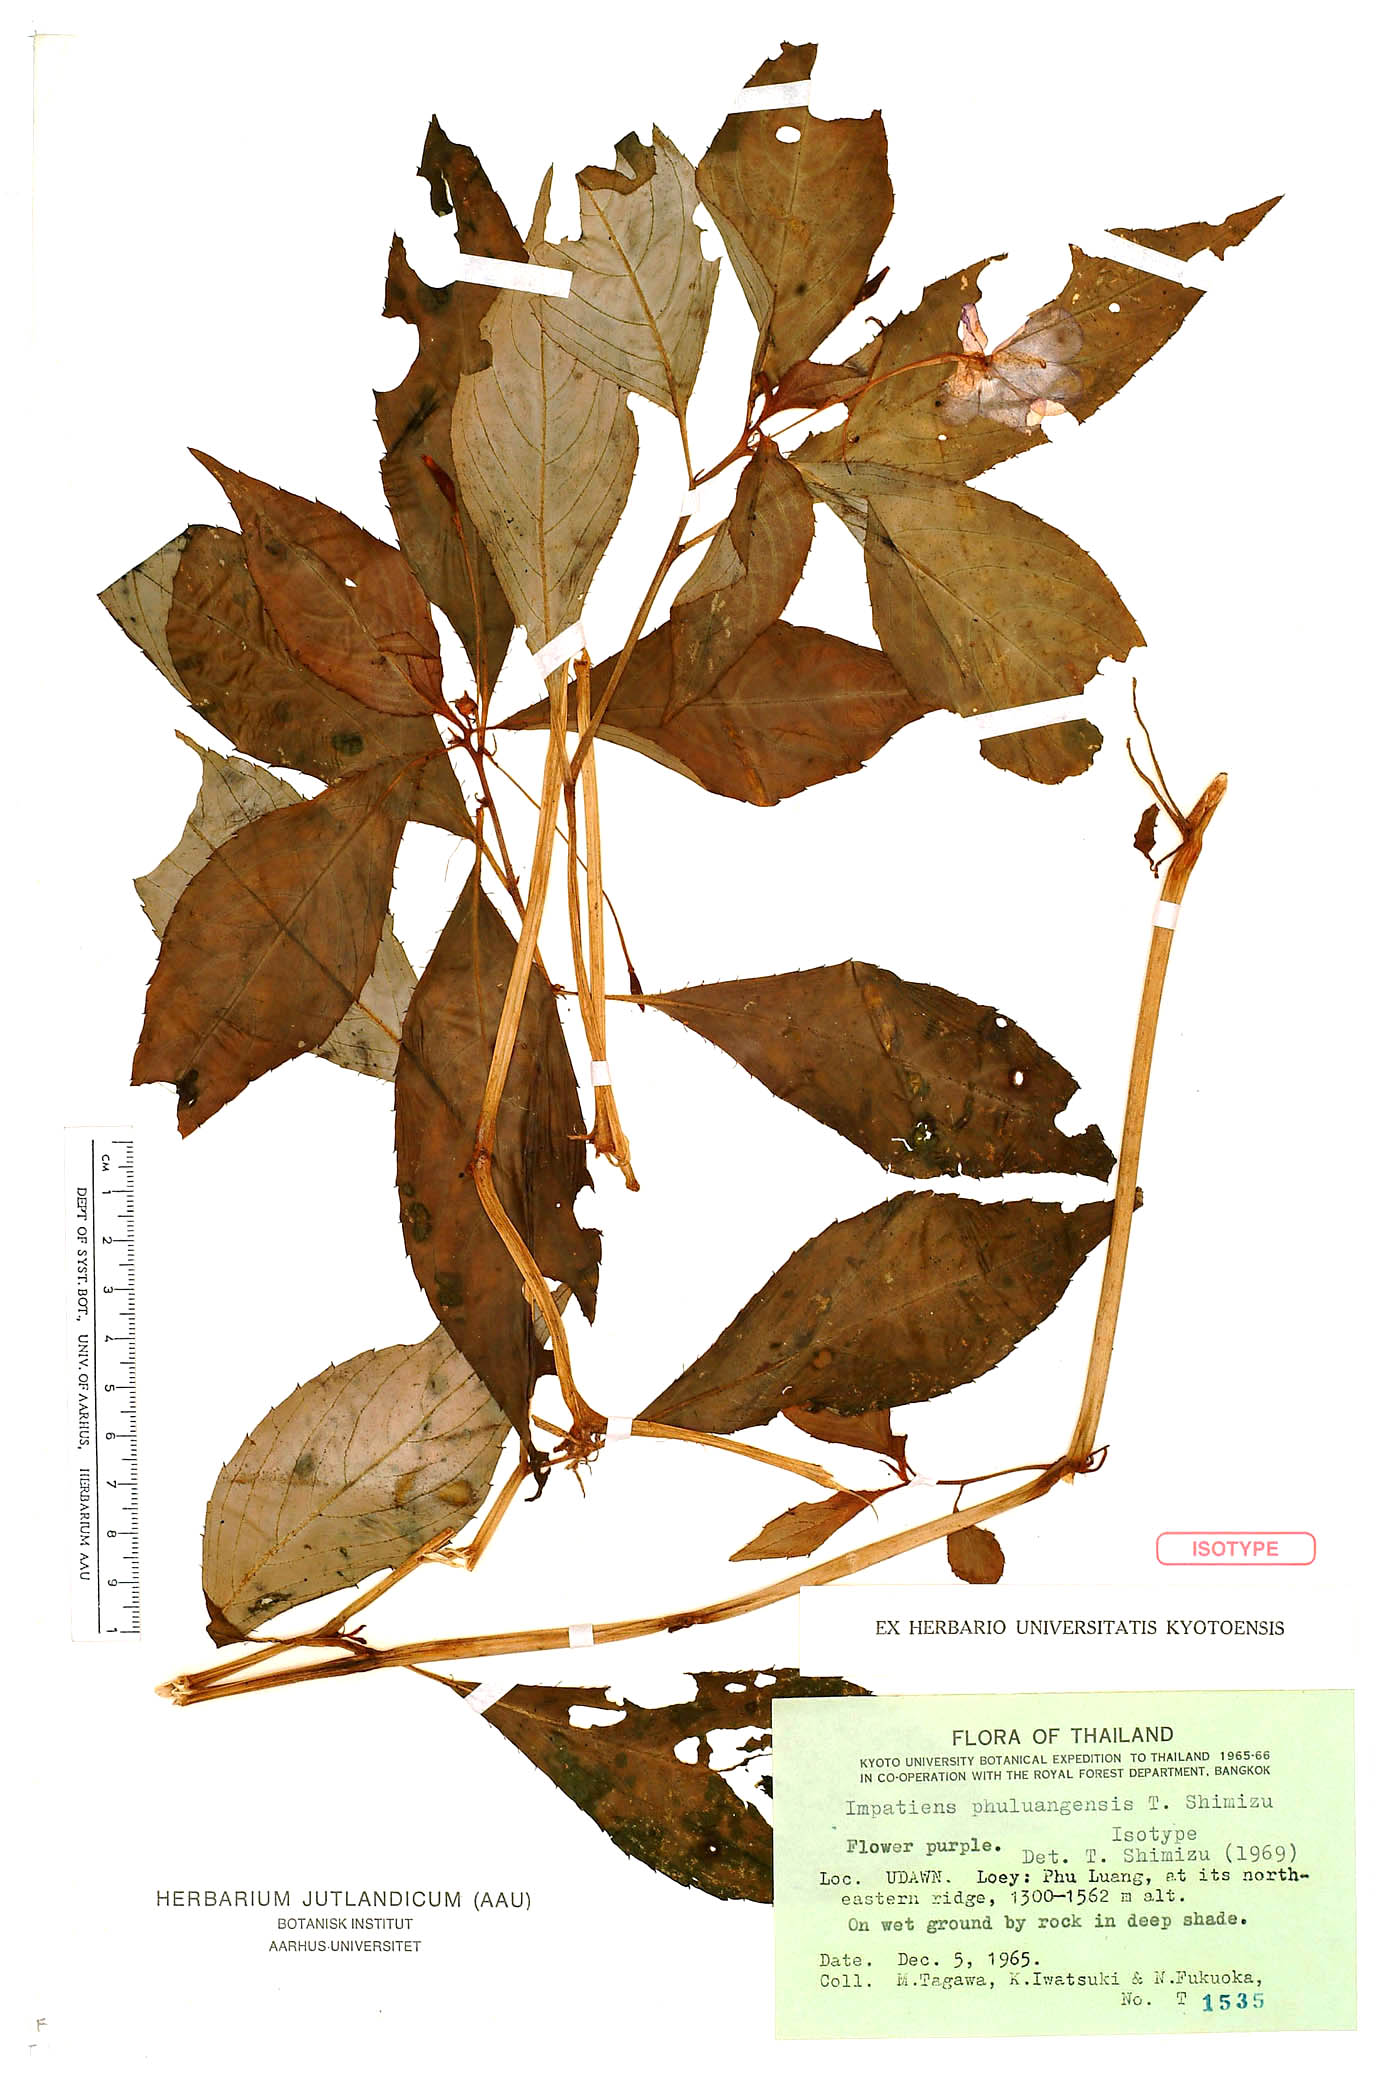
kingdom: Plantae
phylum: Tracheophyta
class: Magnoliopsida
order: Ericales
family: Balsaminaceae
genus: Impatiens
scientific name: Impatiens phuluangensis
